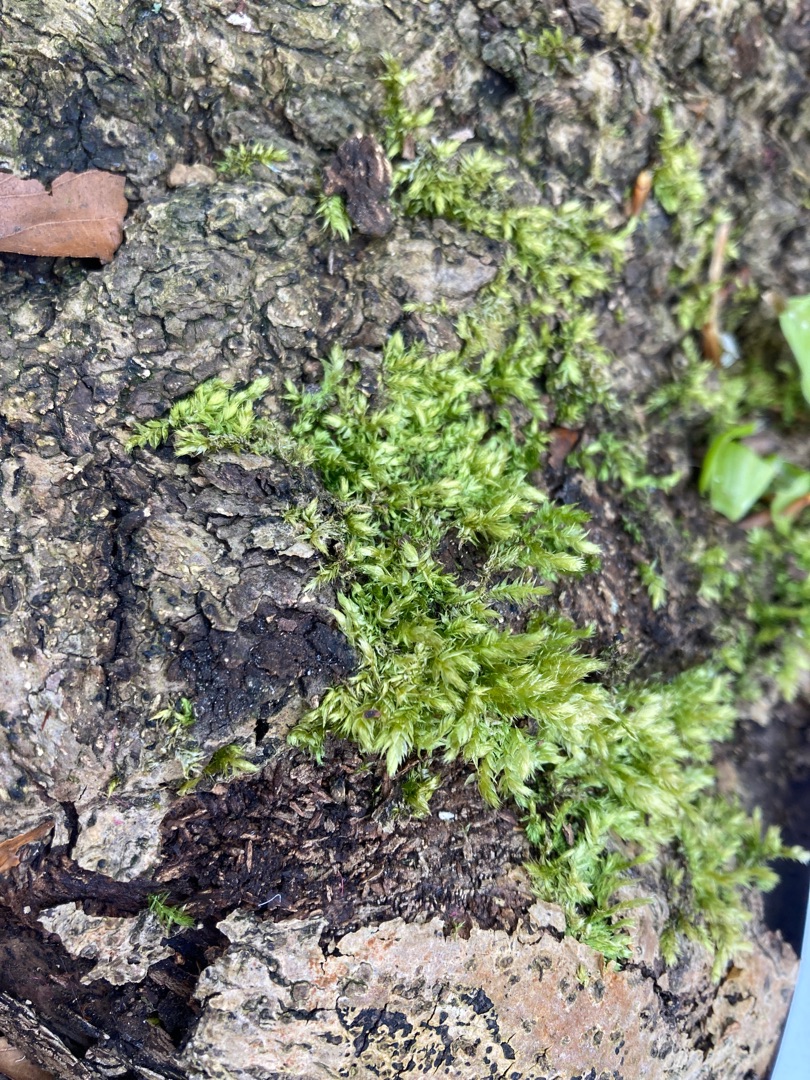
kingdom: Plantae
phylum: Bryophyta
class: Bryopsida
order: Hypnales
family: Brachytheciaceae
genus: Brachythecium
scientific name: Brachythecium rutabulum
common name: Almindelig kortkapsel
